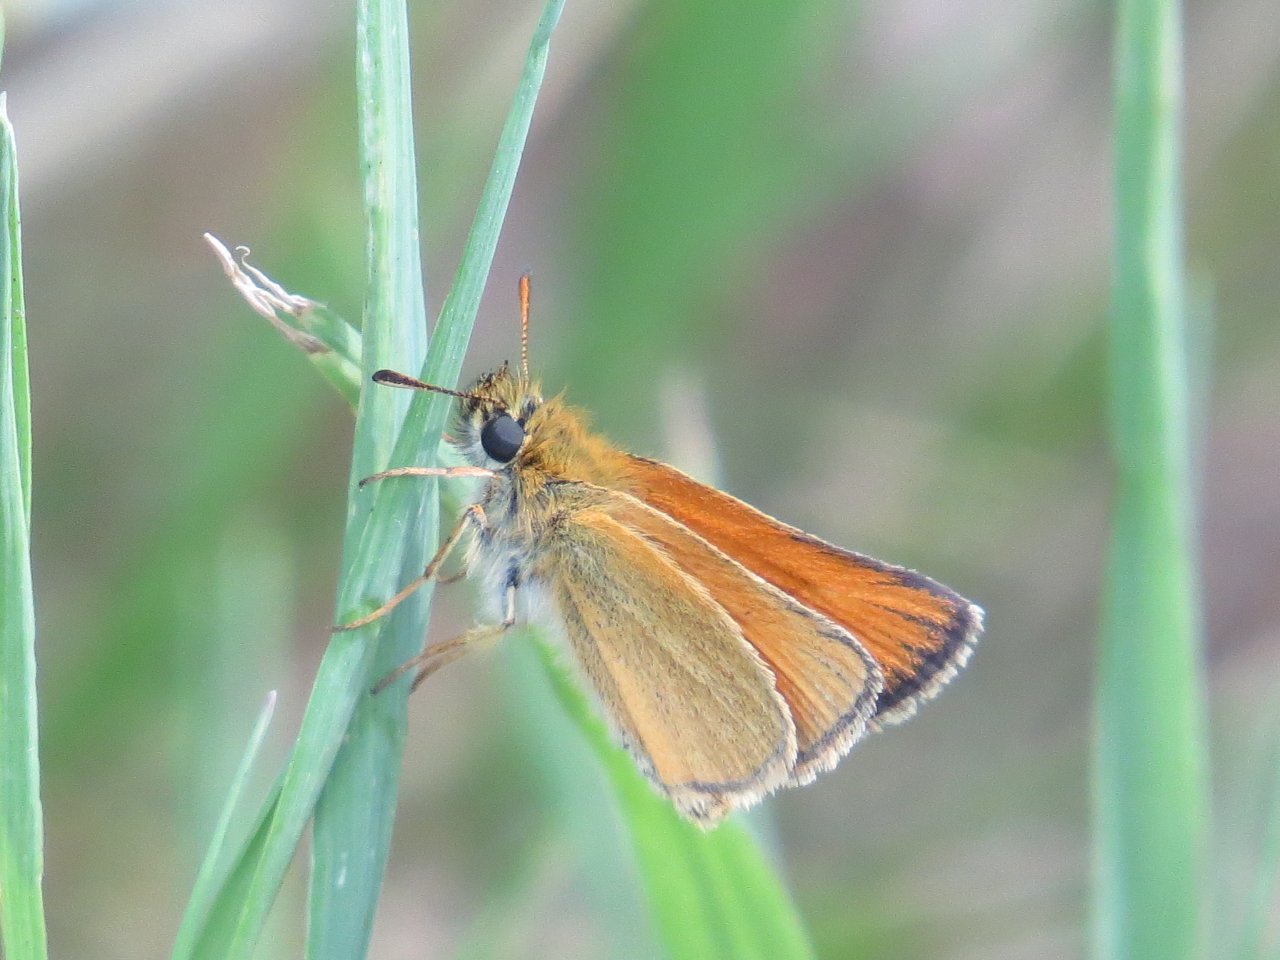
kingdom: Animalia
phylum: Arthropoda
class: Insecta
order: Lepidoptera
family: Hesperiidae
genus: Oarisma
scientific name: Oarisma garita
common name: Garita Skipperling
